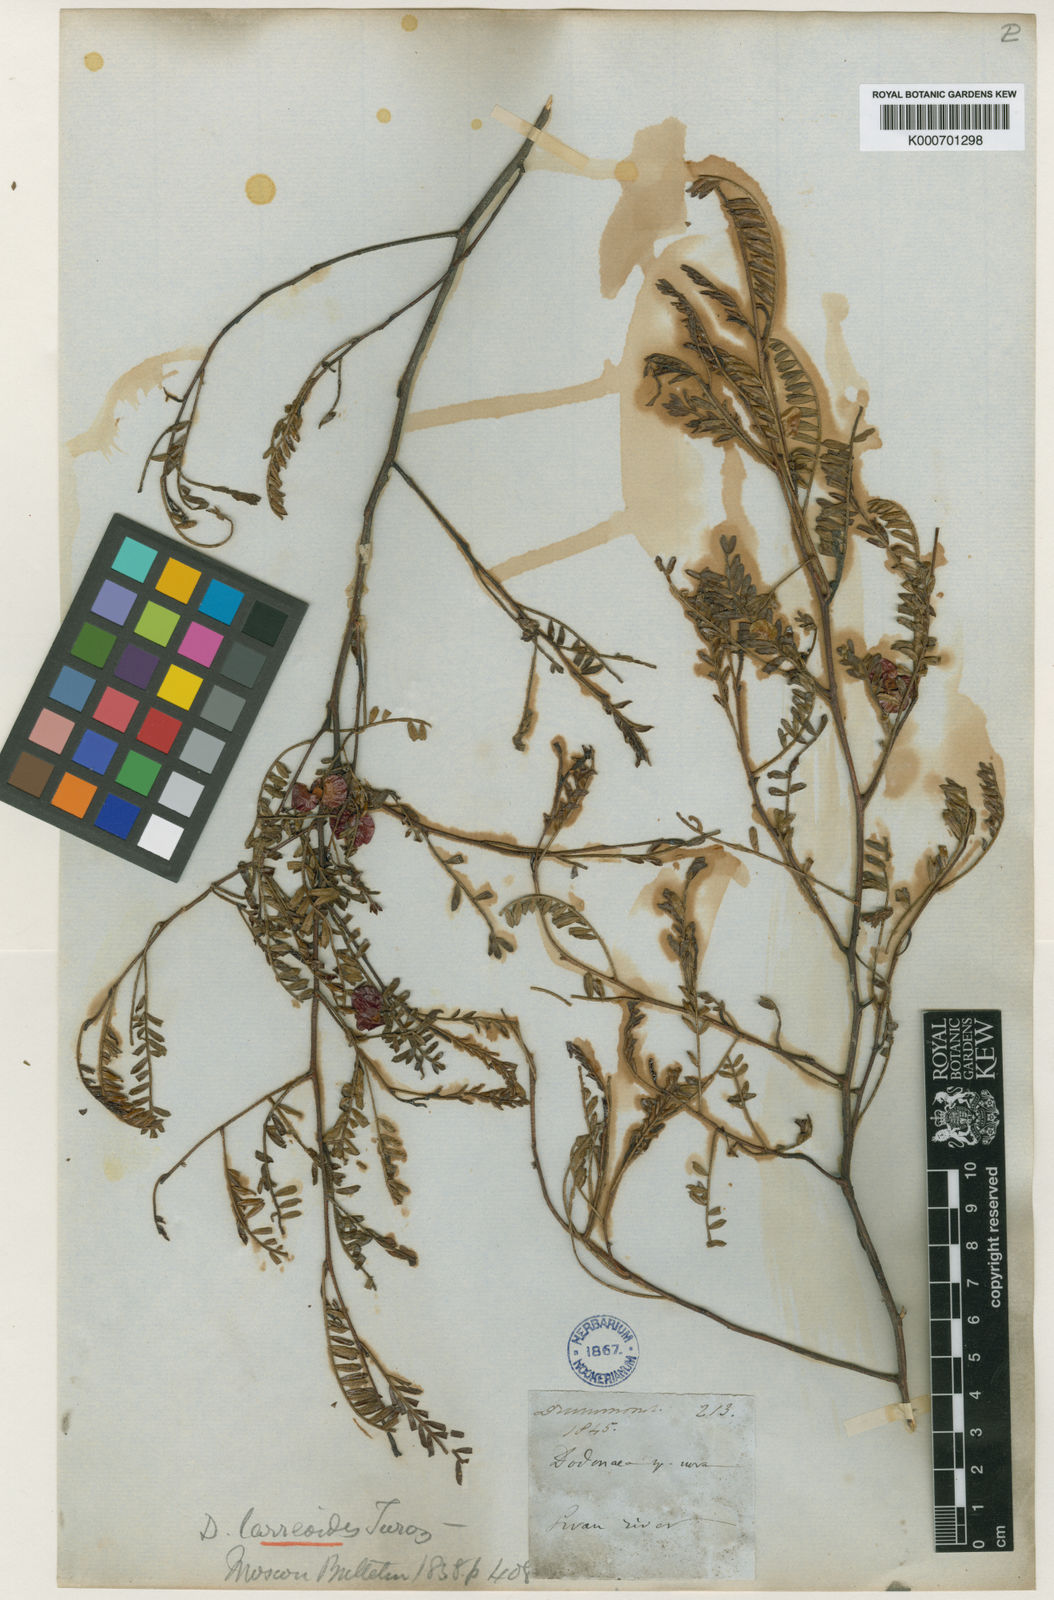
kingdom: Plantae
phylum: Tracheophyta
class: Magnoliopsida
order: Sapindales
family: Sapindaceae
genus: Dodonaea
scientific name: Dodonaea
